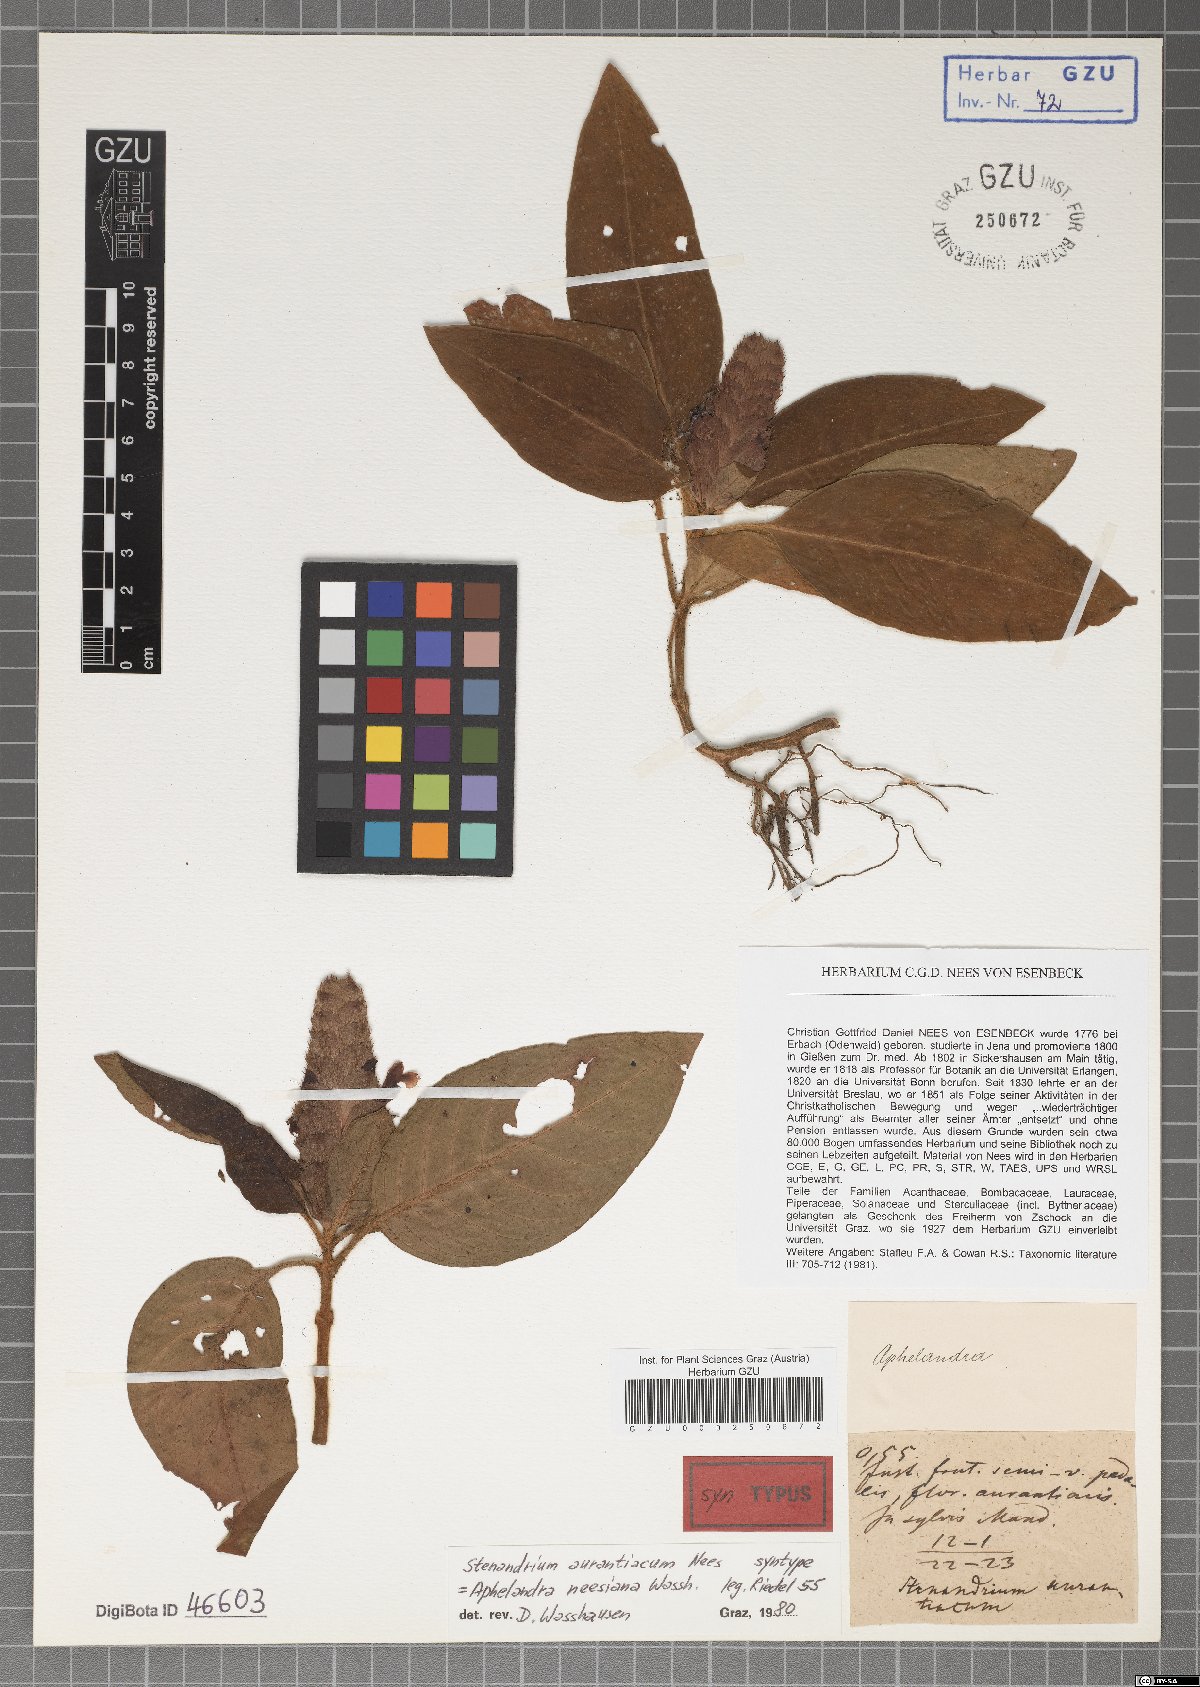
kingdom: Plantae
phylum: Tracheophyta
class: Magnoliopsida
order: Lamiales
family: Acanthaceae
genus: Aphelandra
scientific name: Aphelandra neesiana
